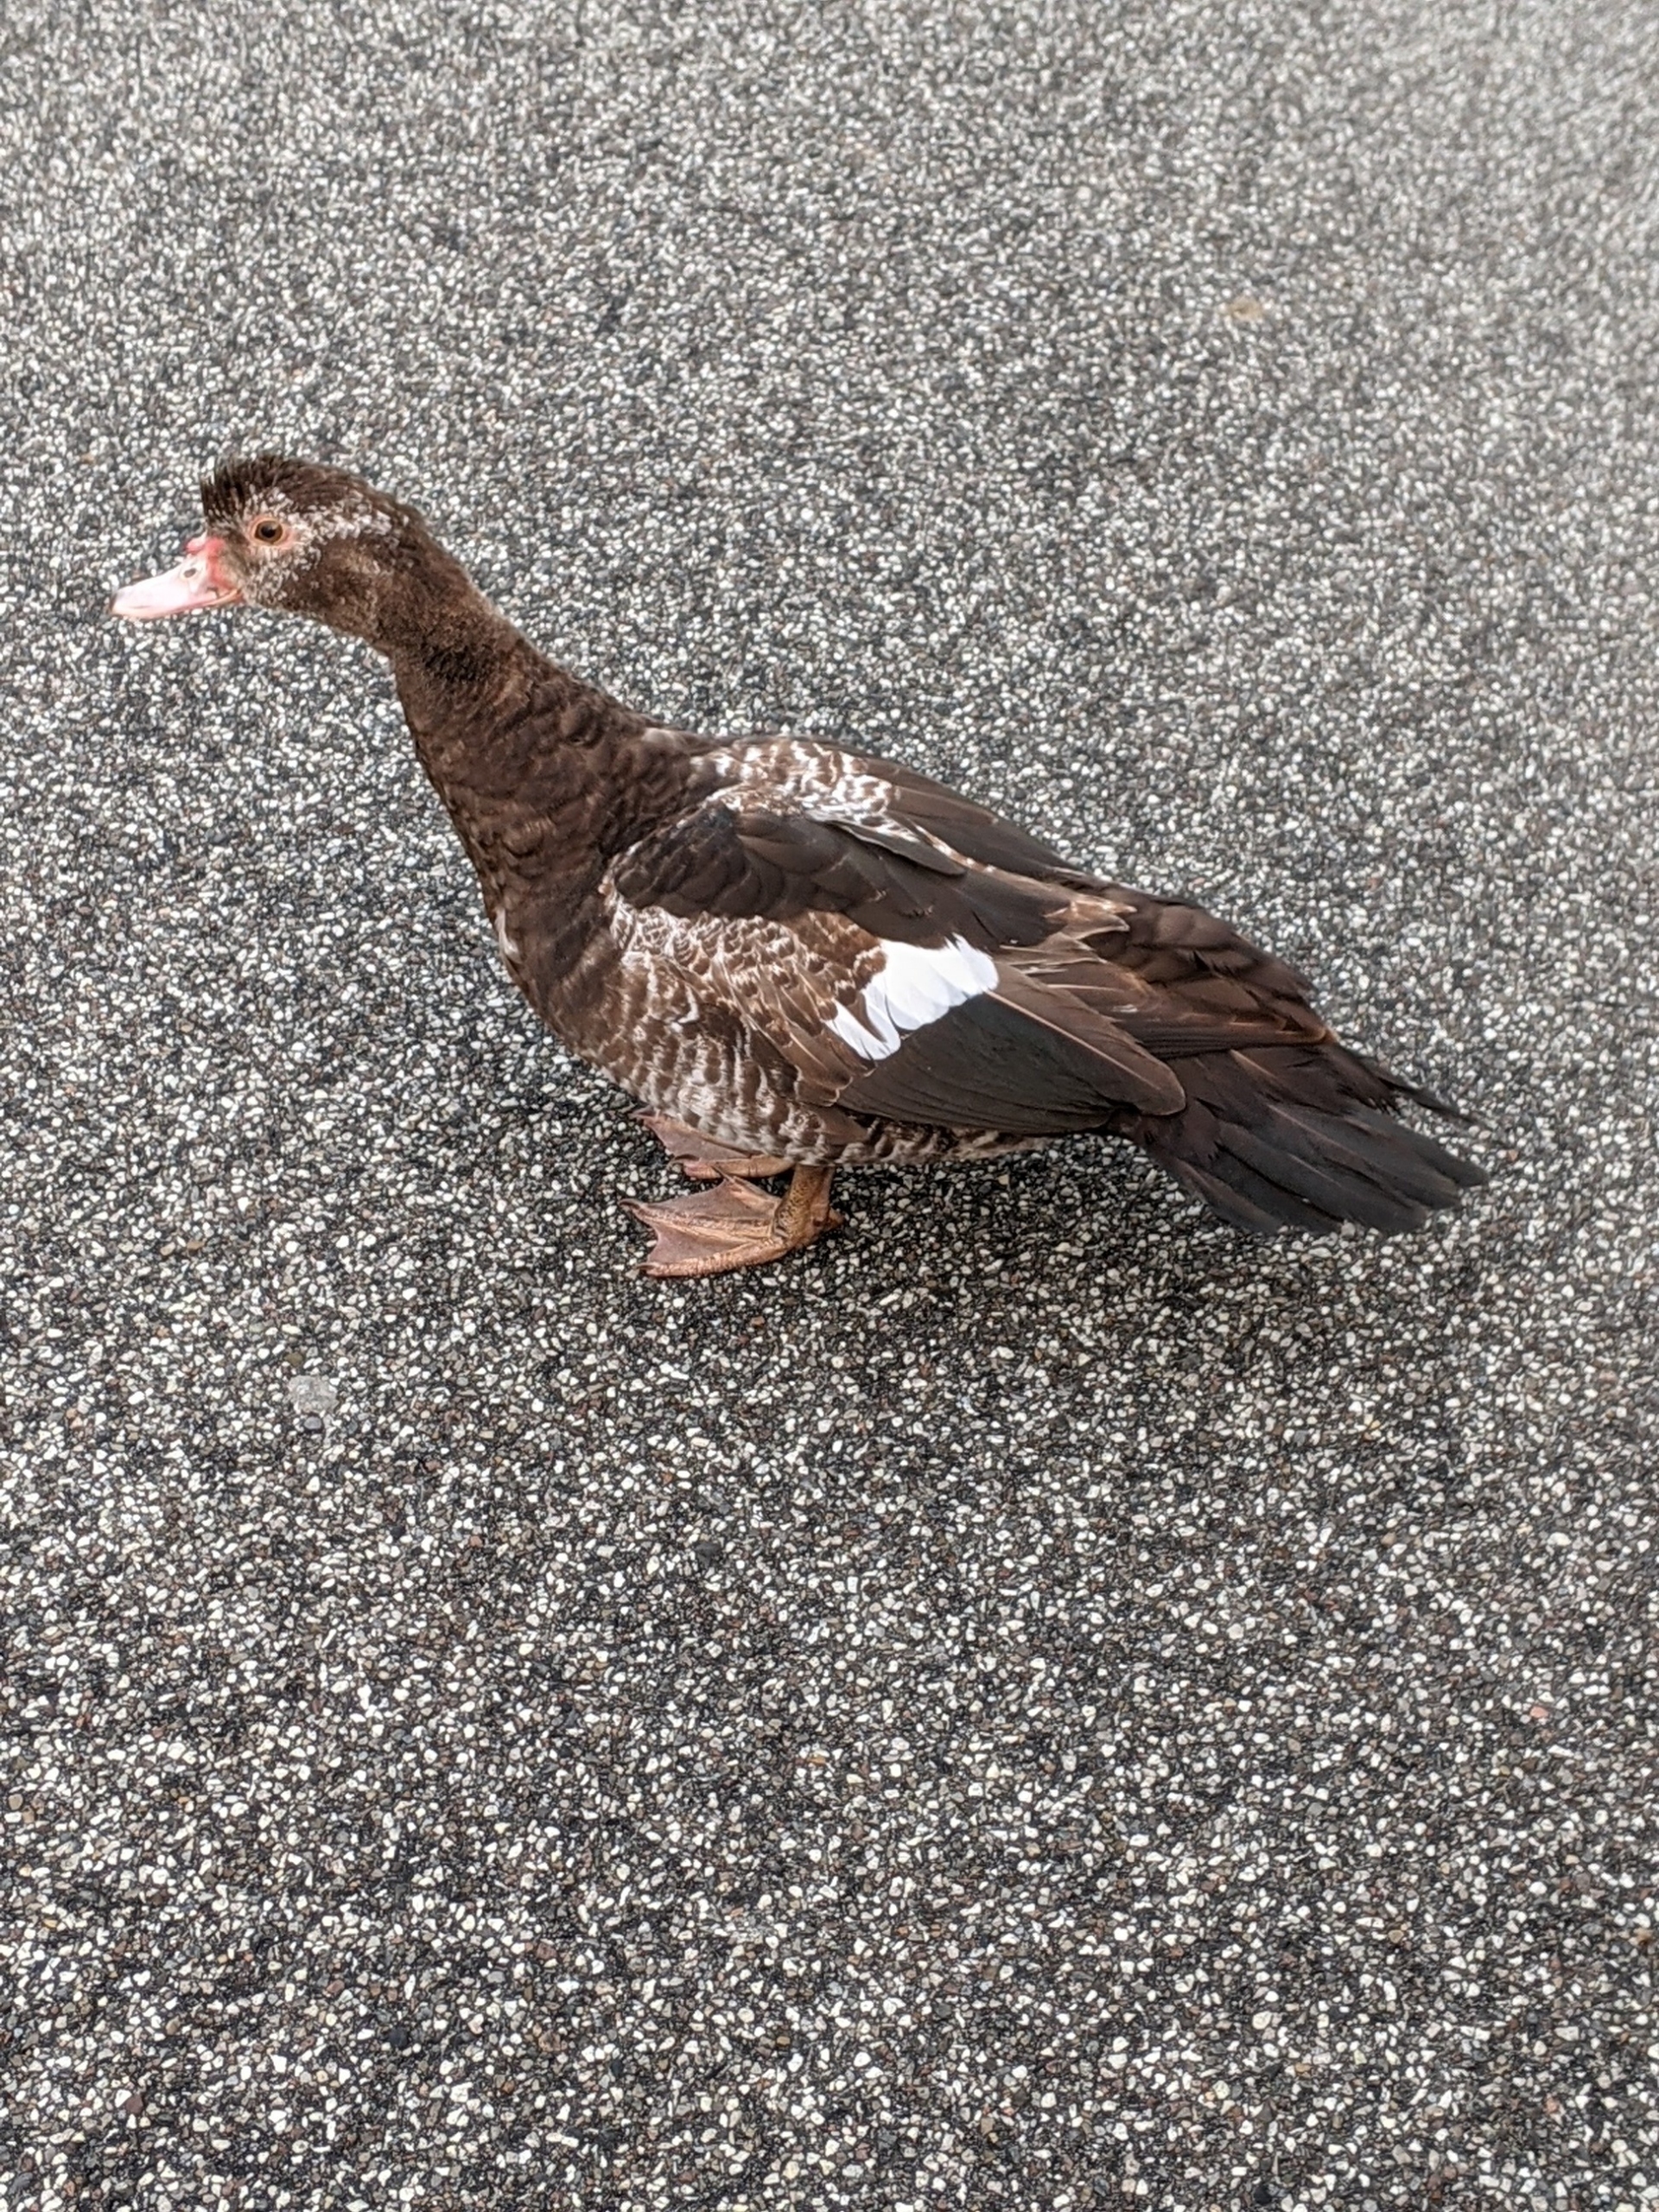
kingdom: Animalia
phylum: Chordata
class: Aves
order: Anseriformes
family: Anatidae
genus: Cairina
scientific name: Cairina moschata
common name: Moskusand
